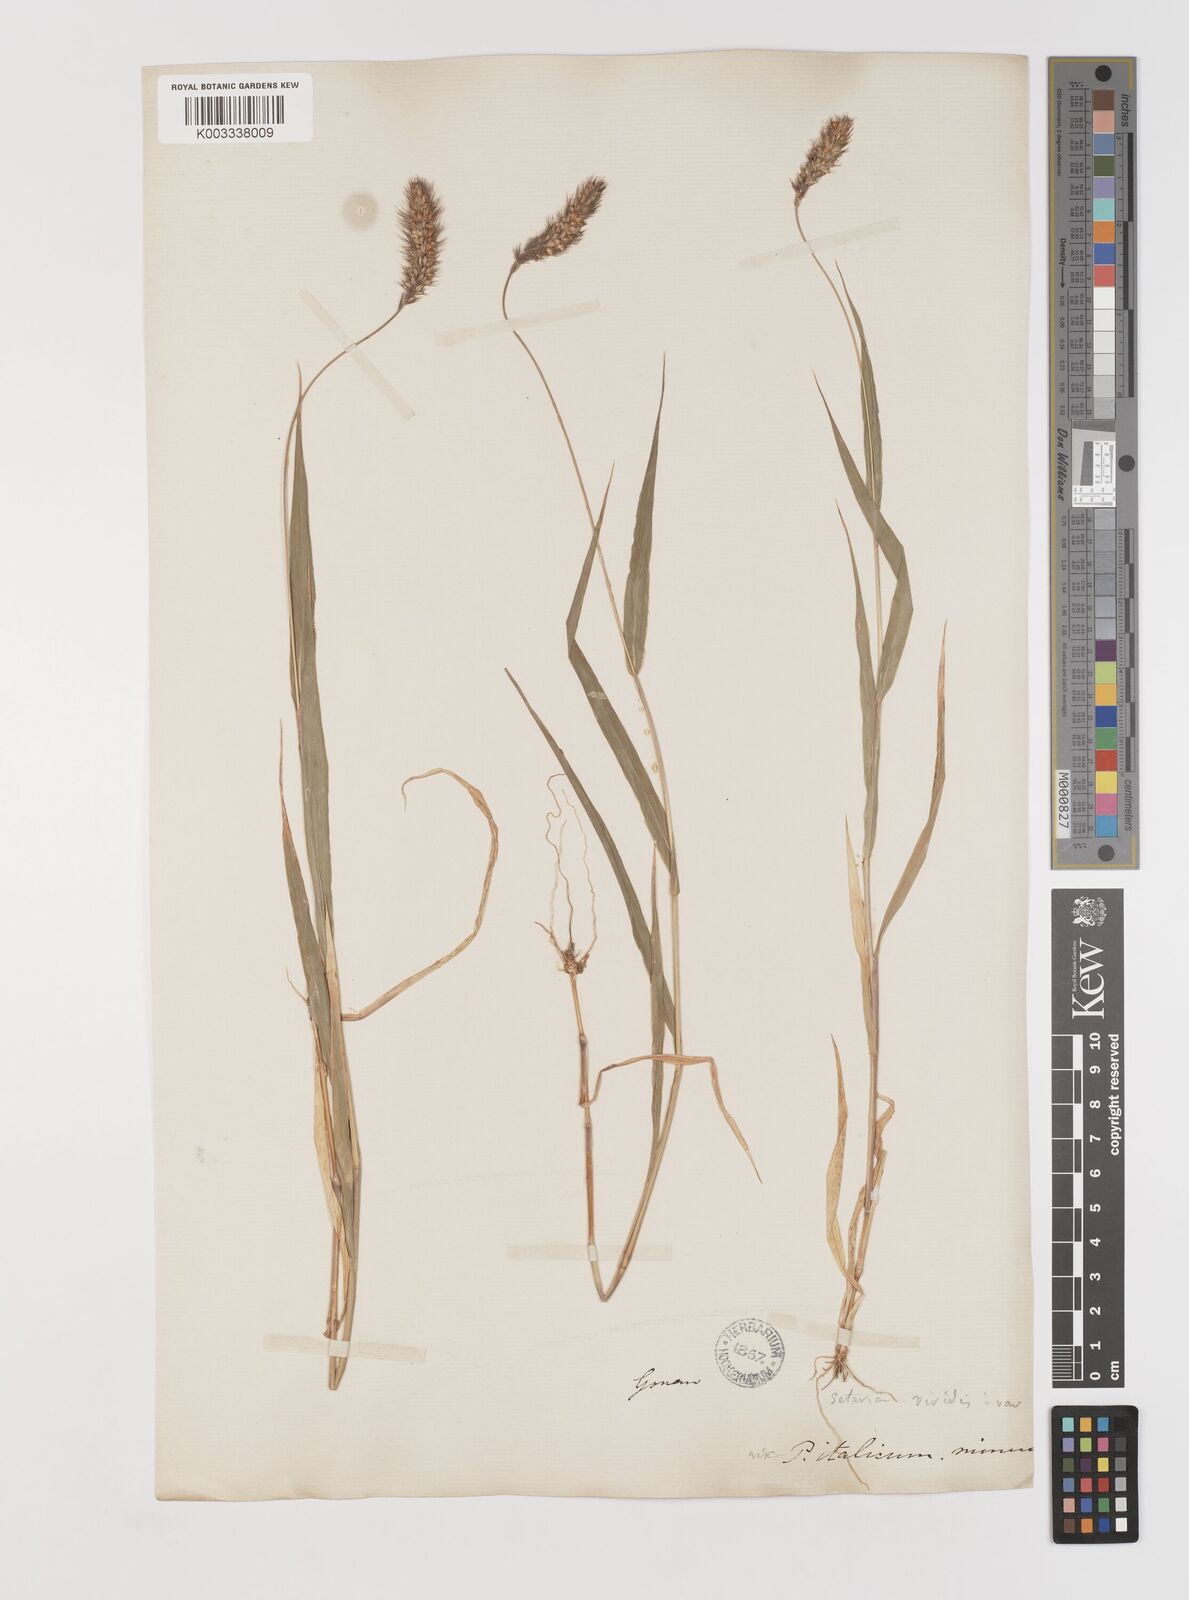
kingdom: Plantae
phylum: Tracheophyta
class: Liliopsida
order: Poales
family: Poaceae
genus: Setaria
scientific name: Setaria italica
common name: Foxtail bristle-grass
